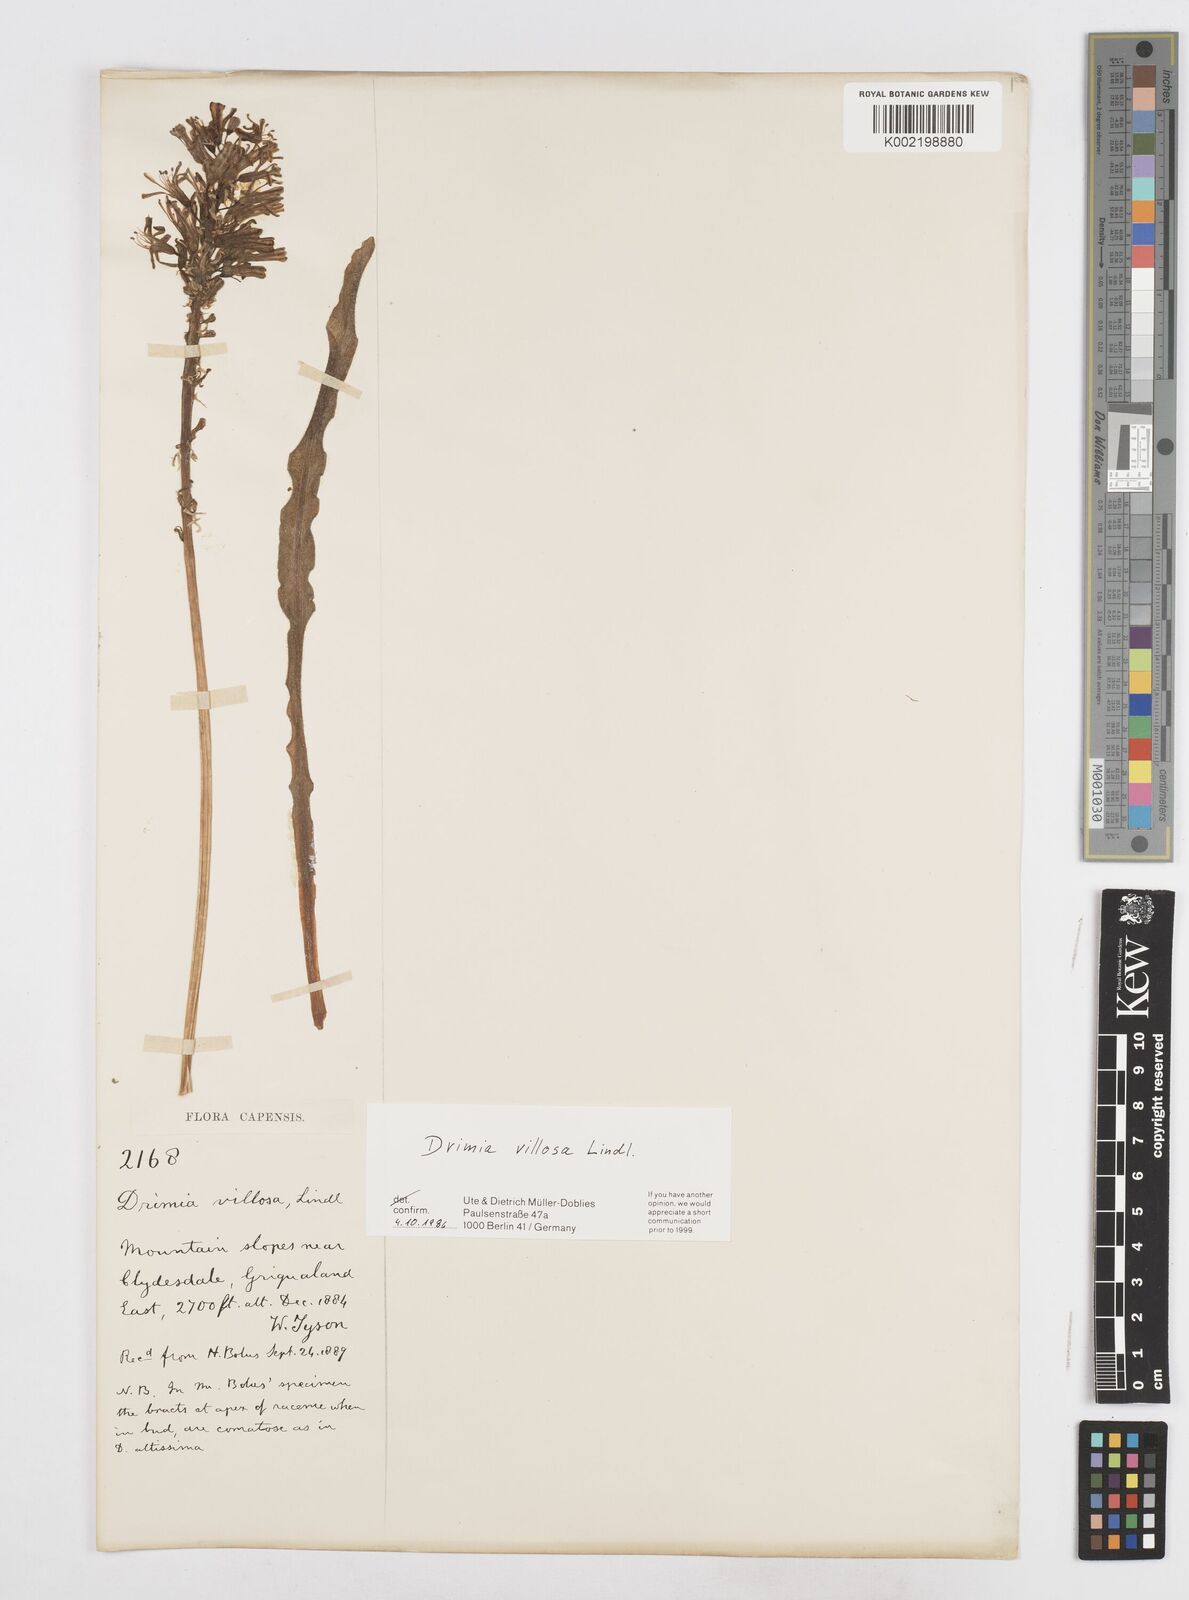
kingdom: Plantae
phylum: Tracheophyta
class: Liliopsida
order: Asparagales
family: Asparagaceae
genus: Drimia
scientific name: Drimia elata
